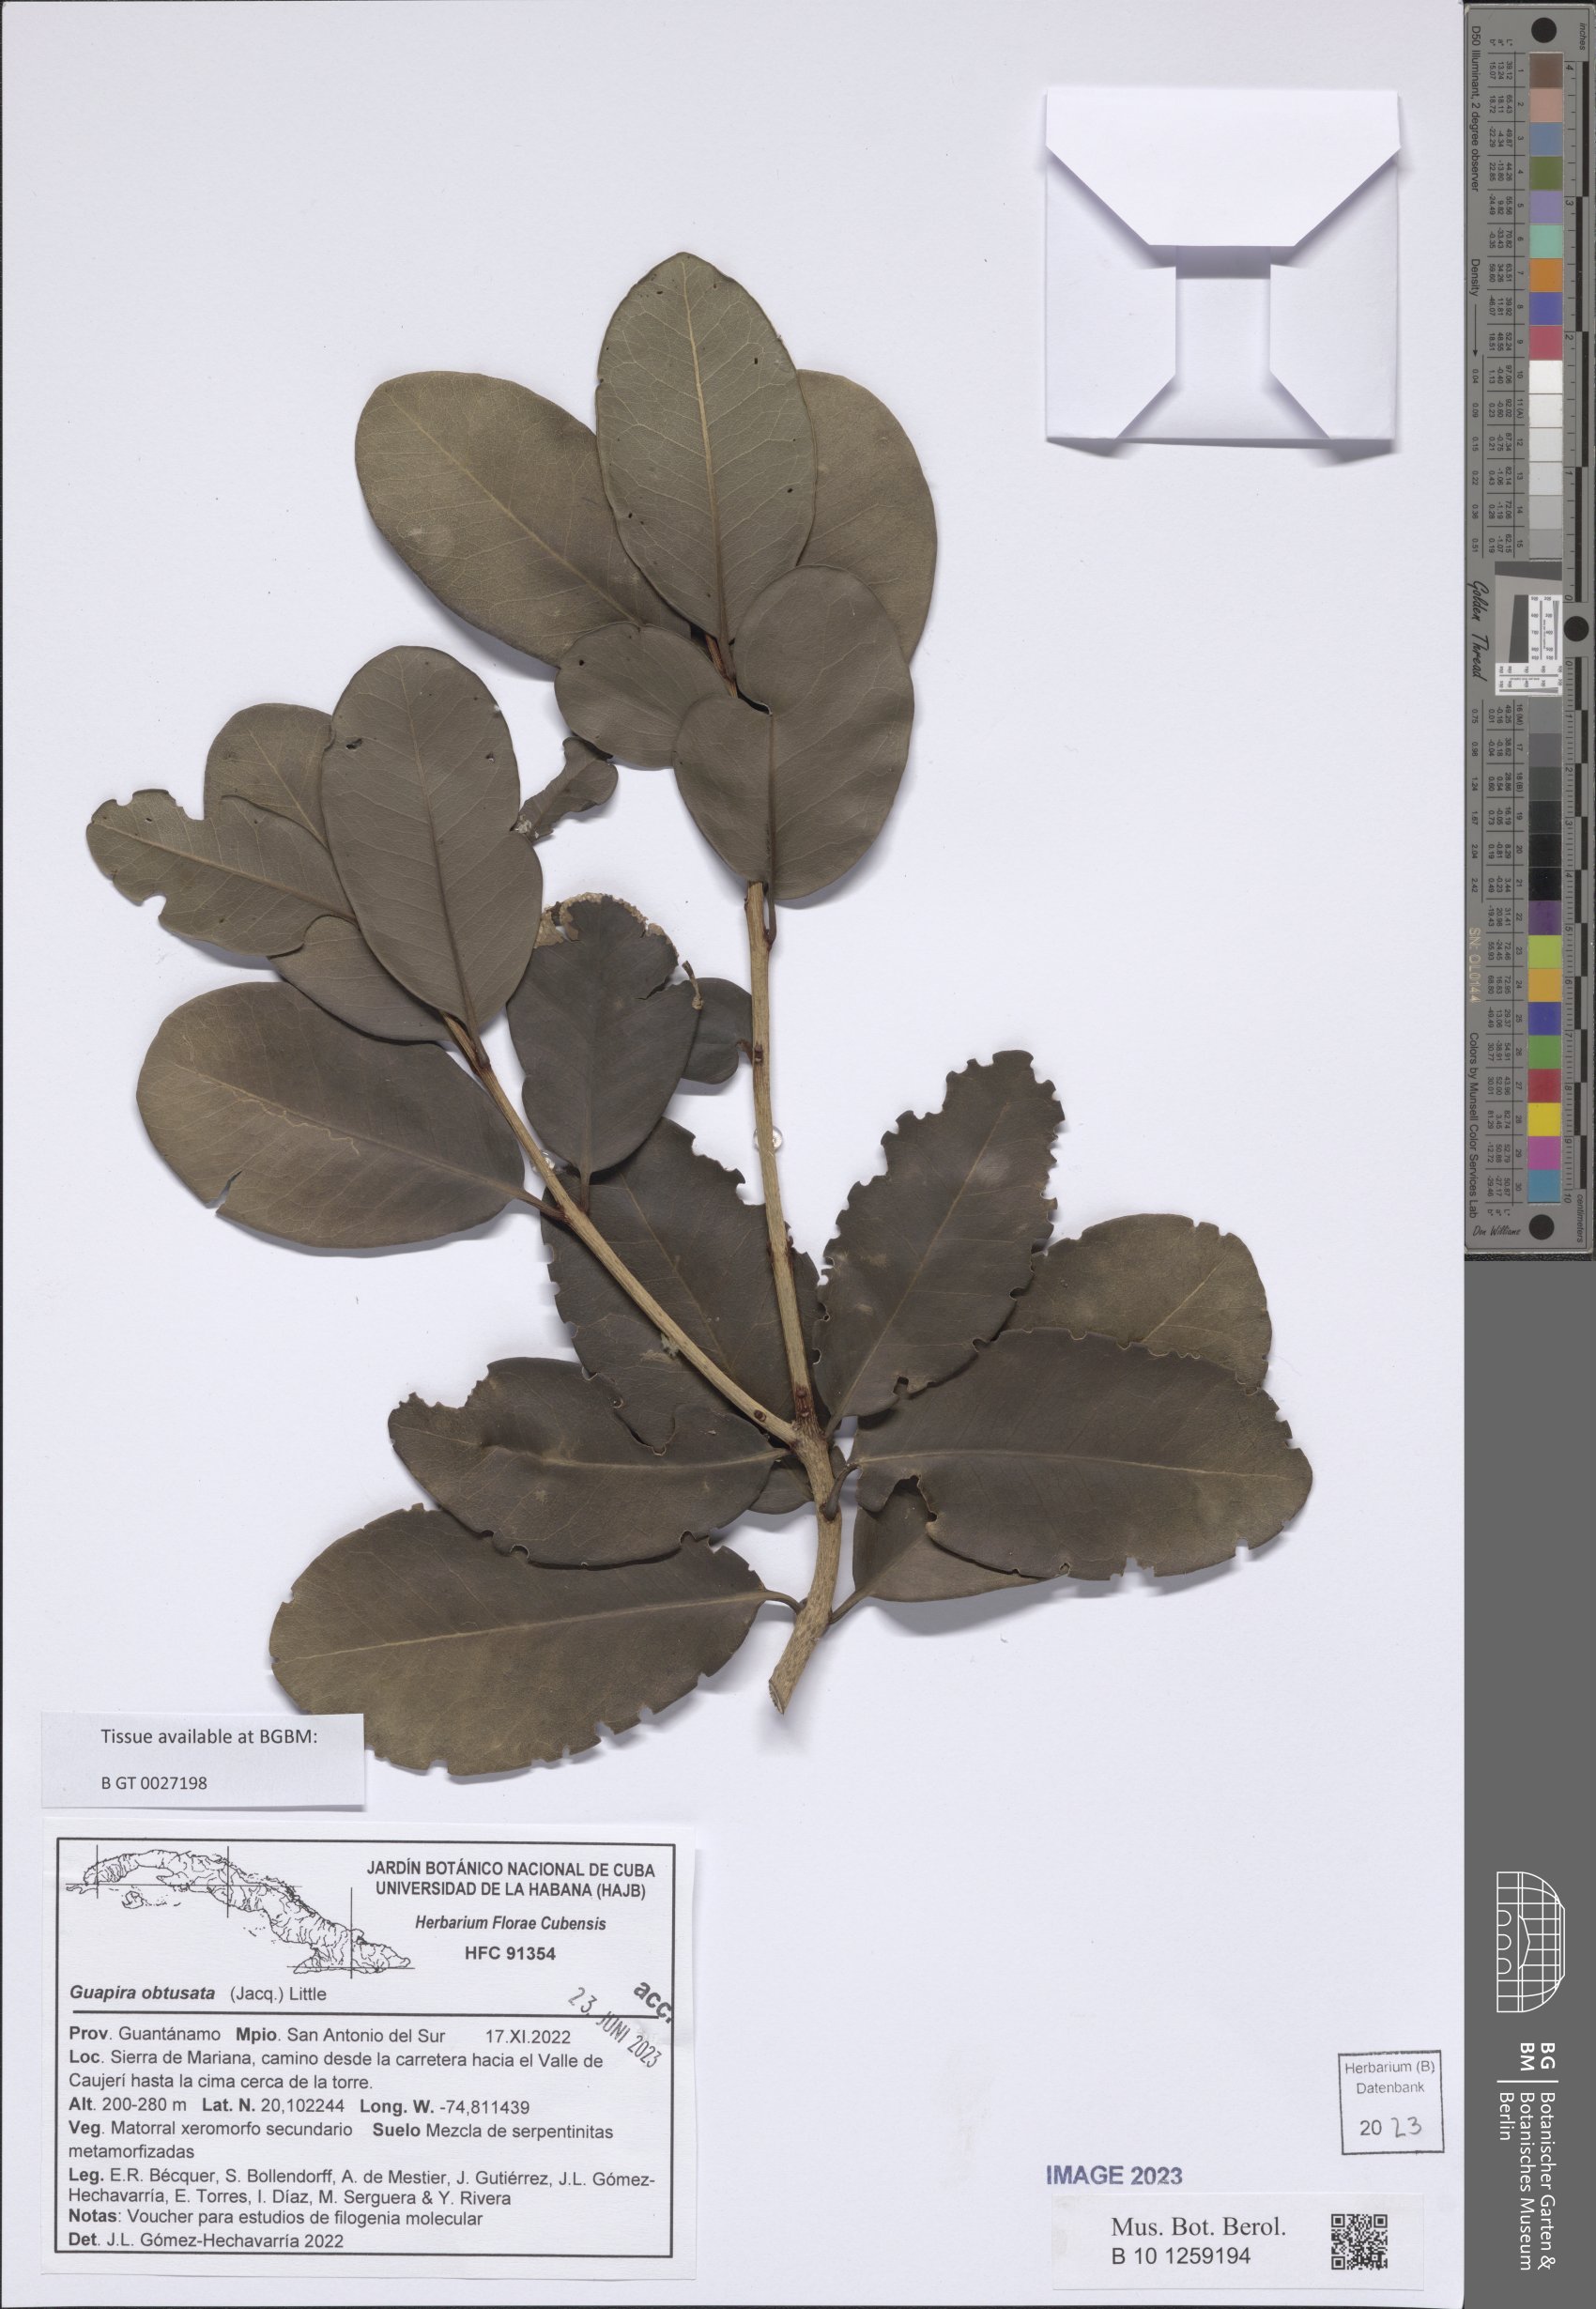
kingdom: Plantae
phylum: Tracheophyta
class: Magnoliopsida
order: Caryophyllales
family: Nyctaginaceae
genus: Guapira
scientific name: Guapira obtusata
